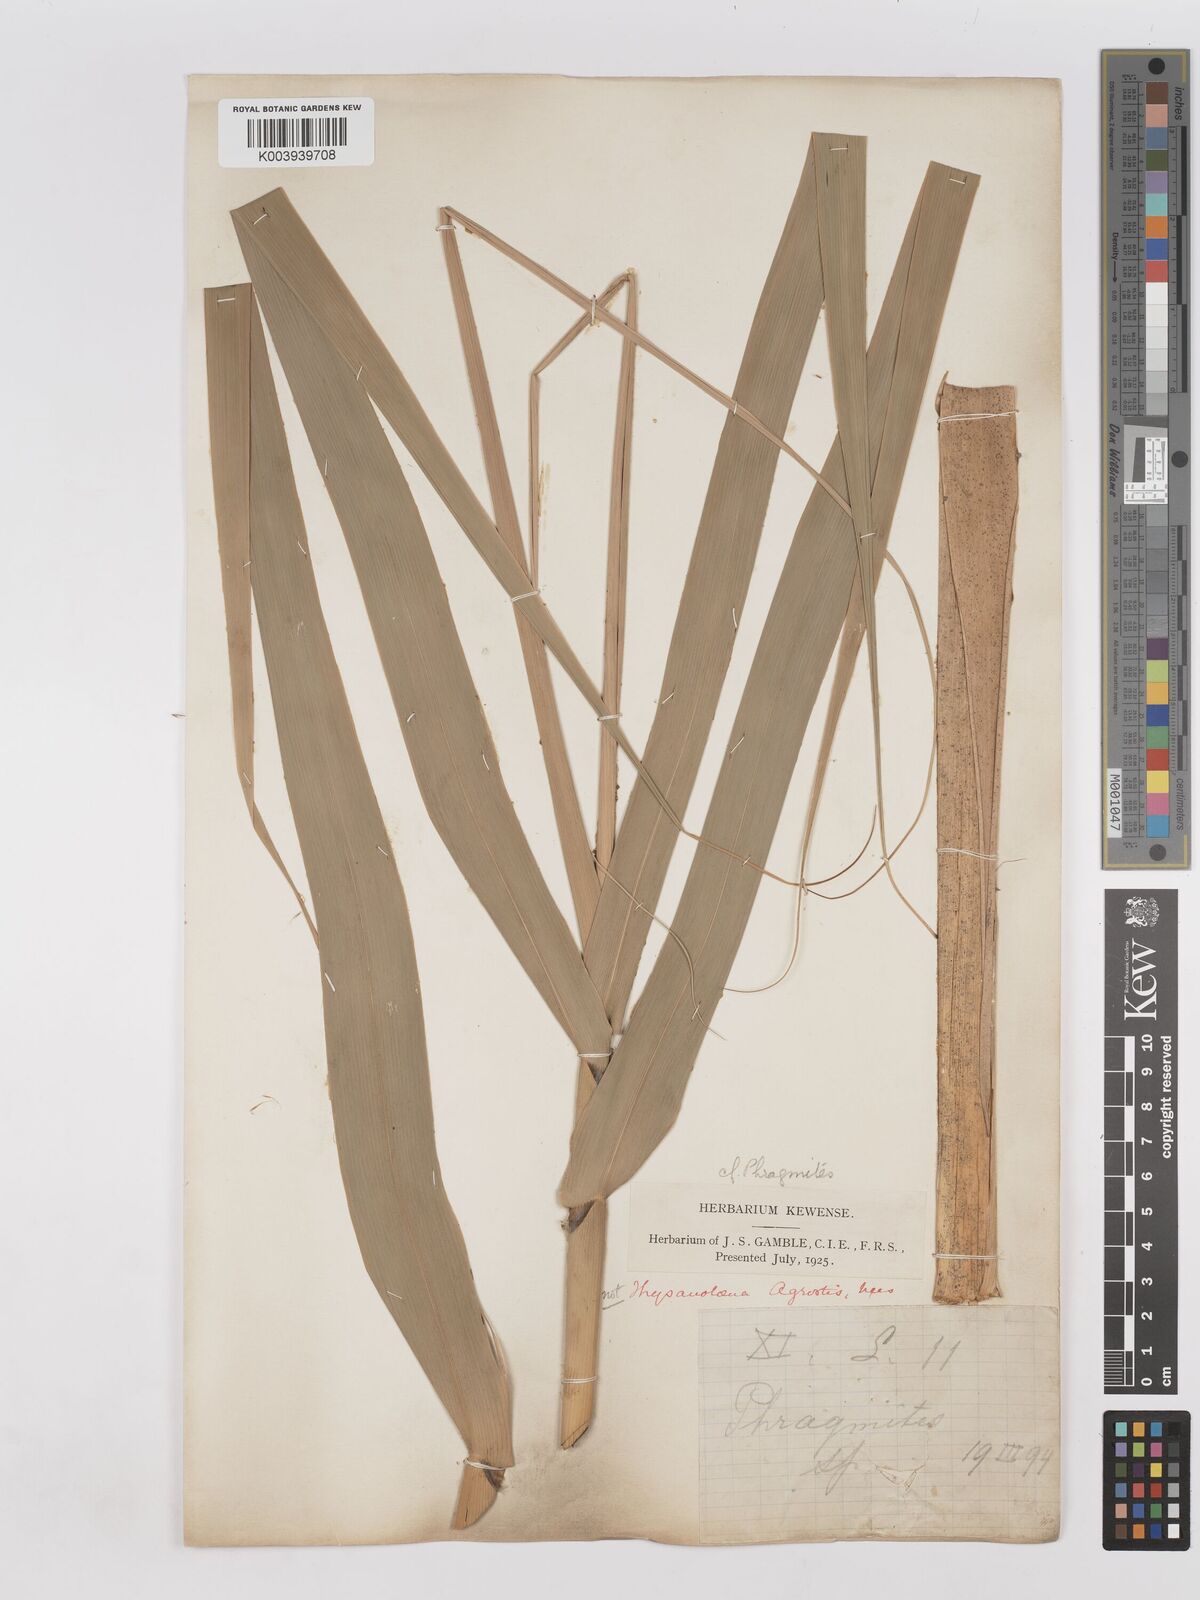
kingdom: Plantae
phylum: Tracheophyta
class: Liliopsida
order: Poales
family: Poaceae
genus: Phragmites
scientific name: Phragmites australis
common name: Common reed
